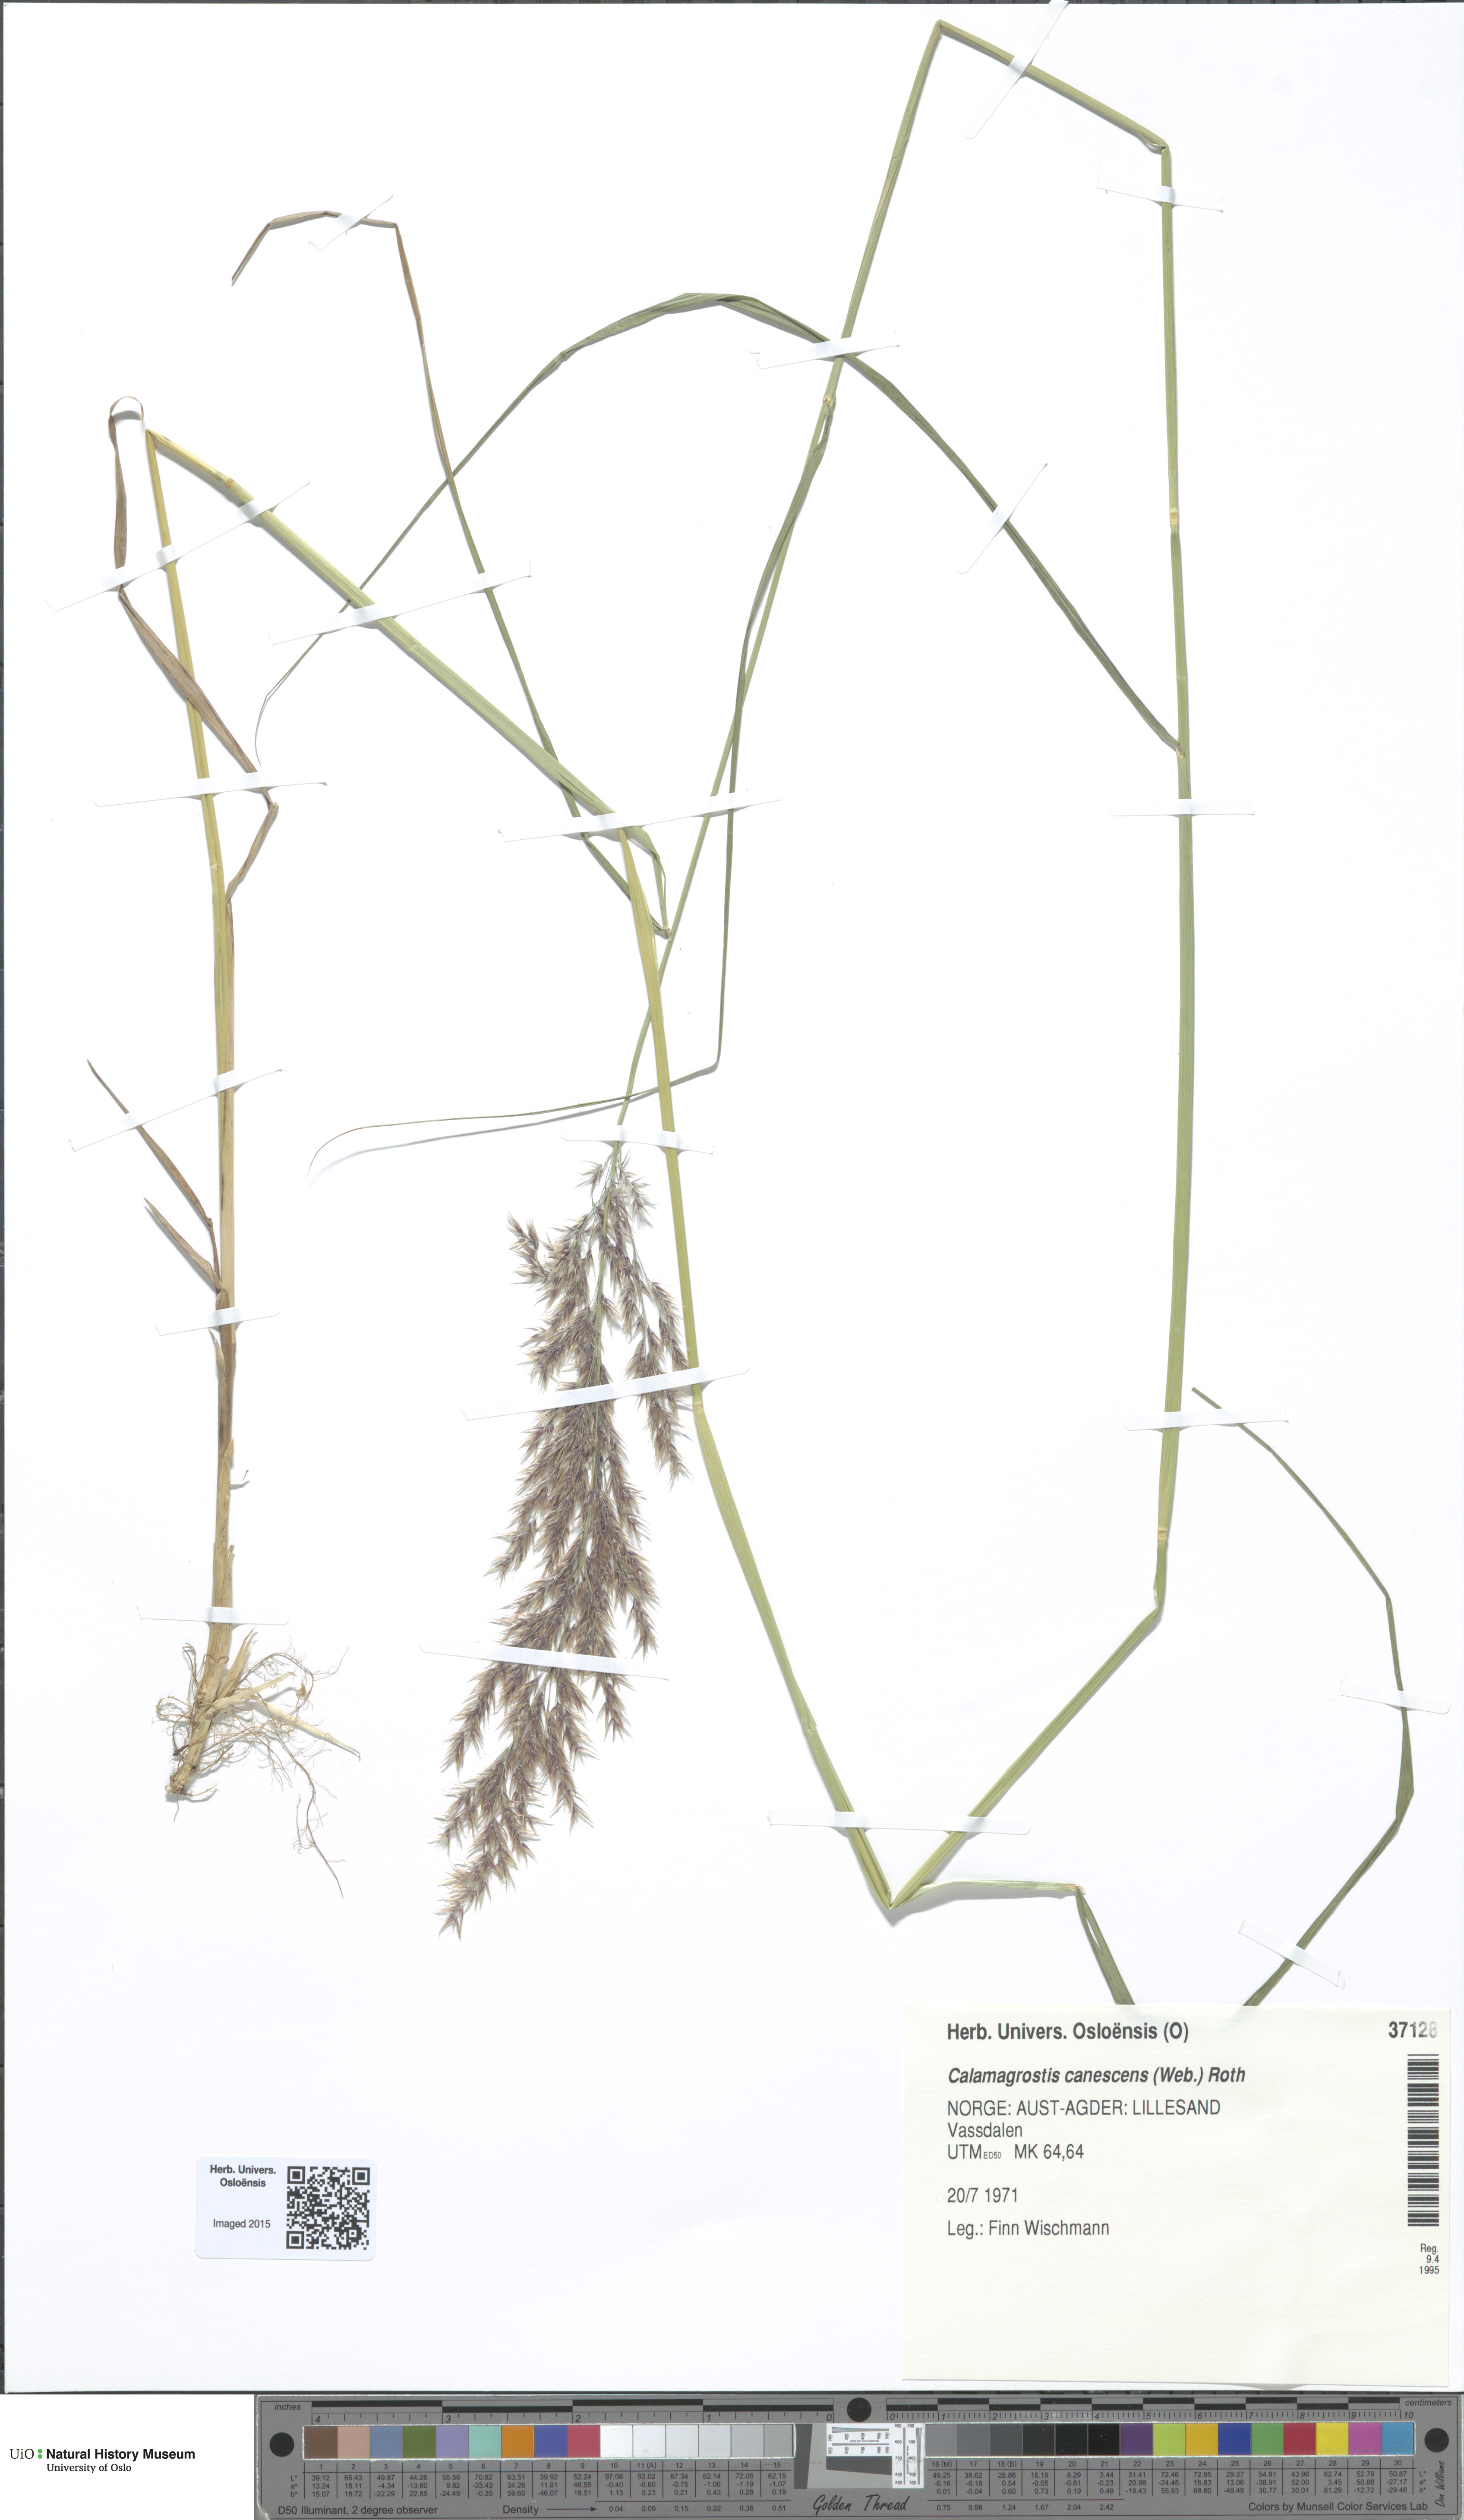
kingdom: Plantae
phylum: Tracheophyta
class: Liliopsida
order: Poales
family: Poaceae
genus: Calamagrostis
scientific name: Calamagrostis canescens
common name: Purple small-reed
